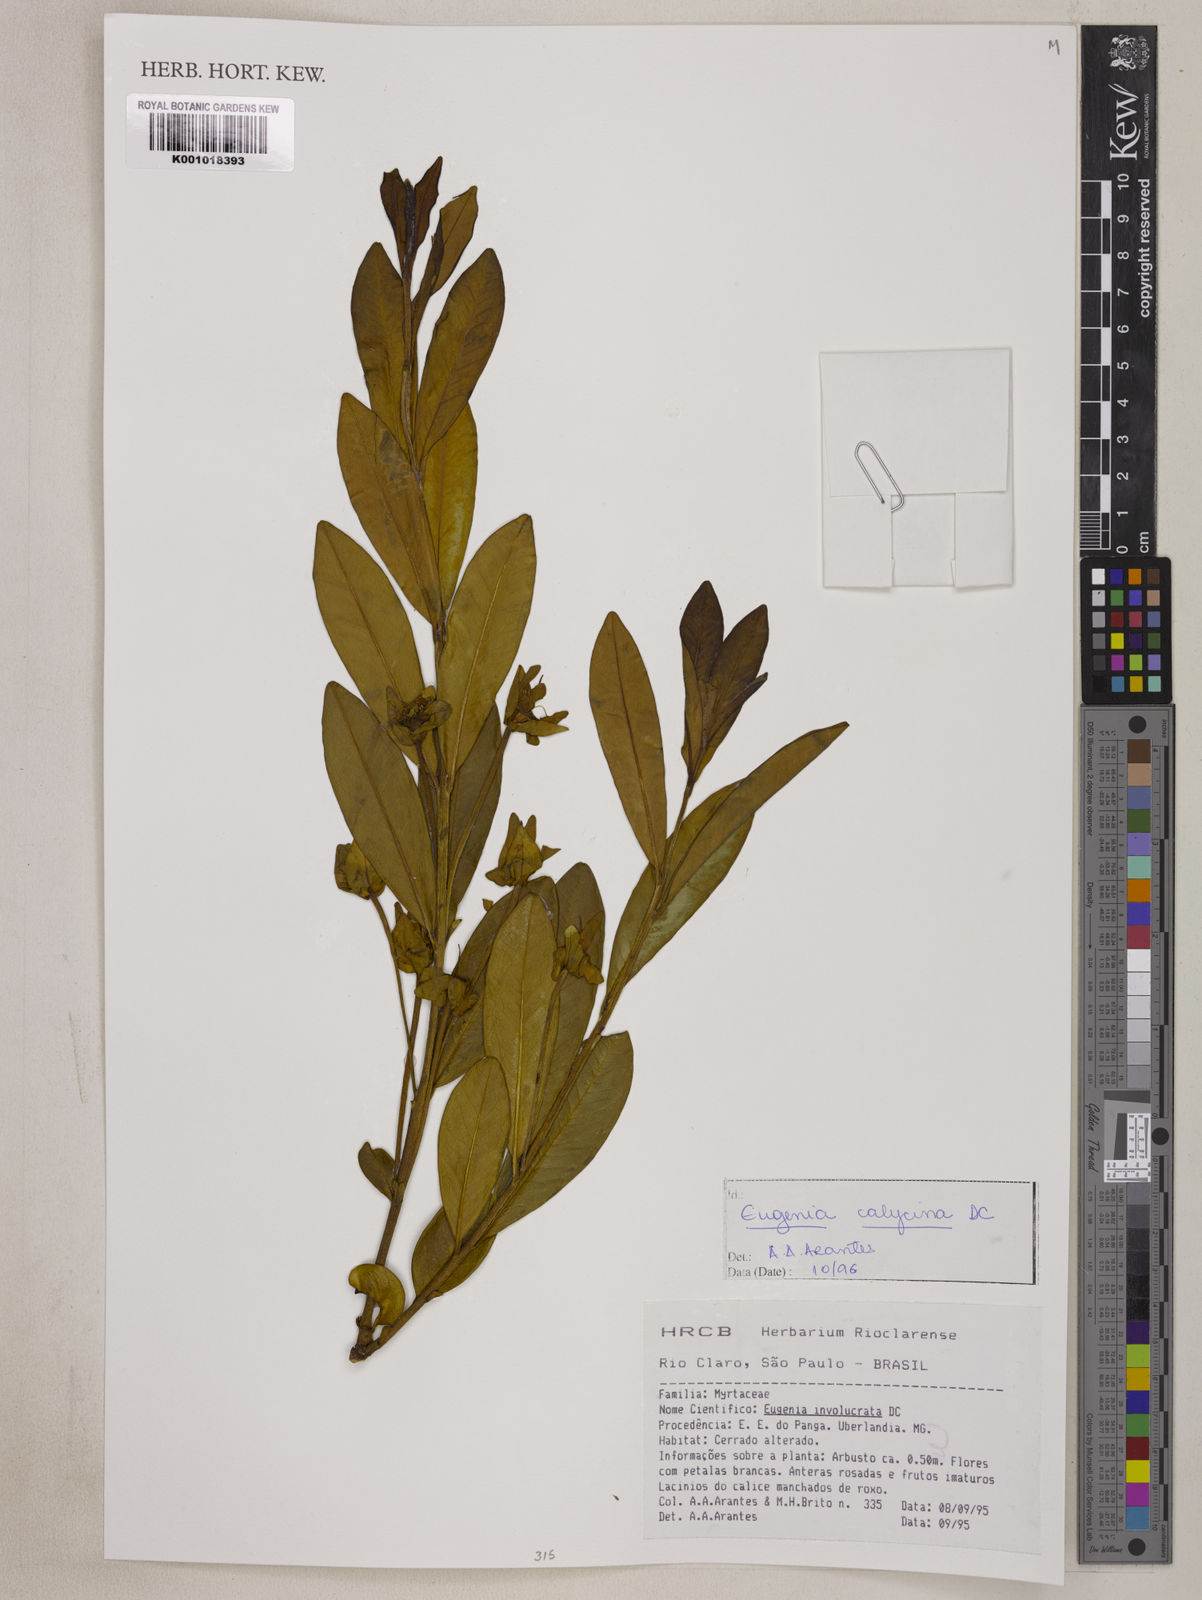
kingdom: Plantae
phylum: Tracheophyta
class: Magnoliopsida
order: Myrtales
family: Myrtaceae
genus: Eugenia
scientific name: Eugenia calycina
